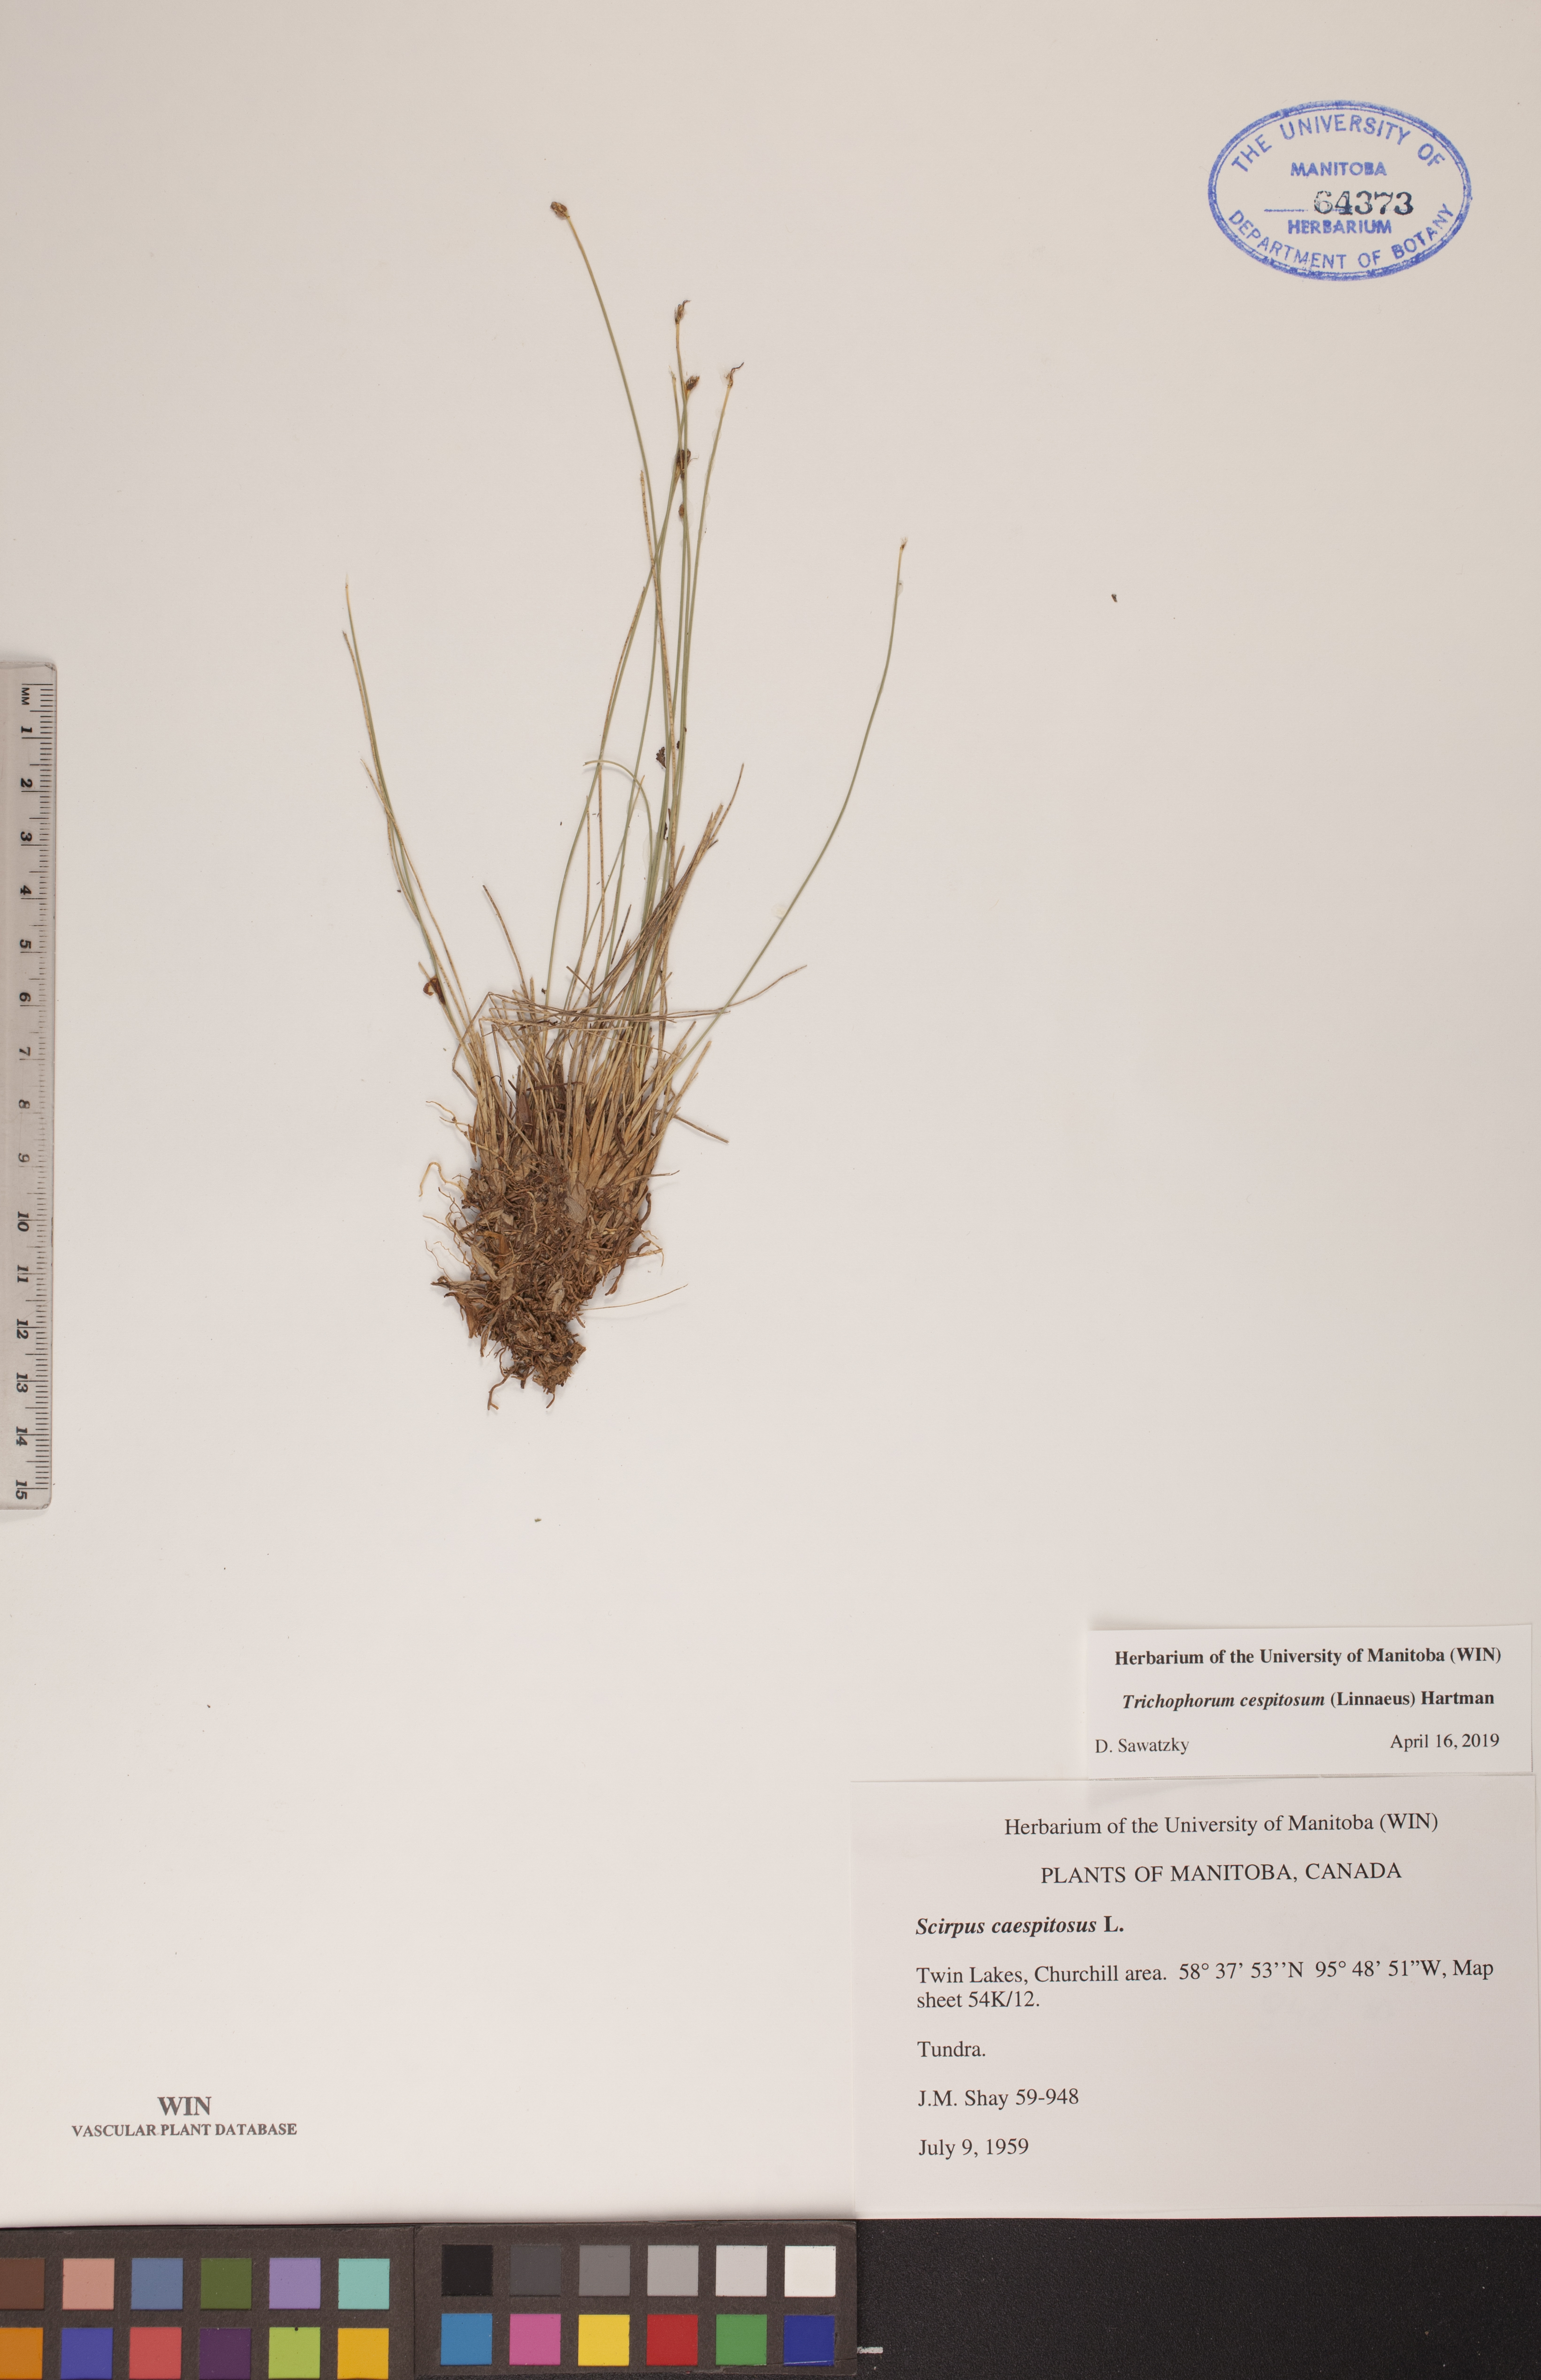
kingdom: Plantae
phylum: Tracheophyta
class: Liliopsida
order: Poales
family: Cyperaceae
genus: Trichophorum
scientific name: Trichophorum cespitosum
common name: Cespitose bulrush
